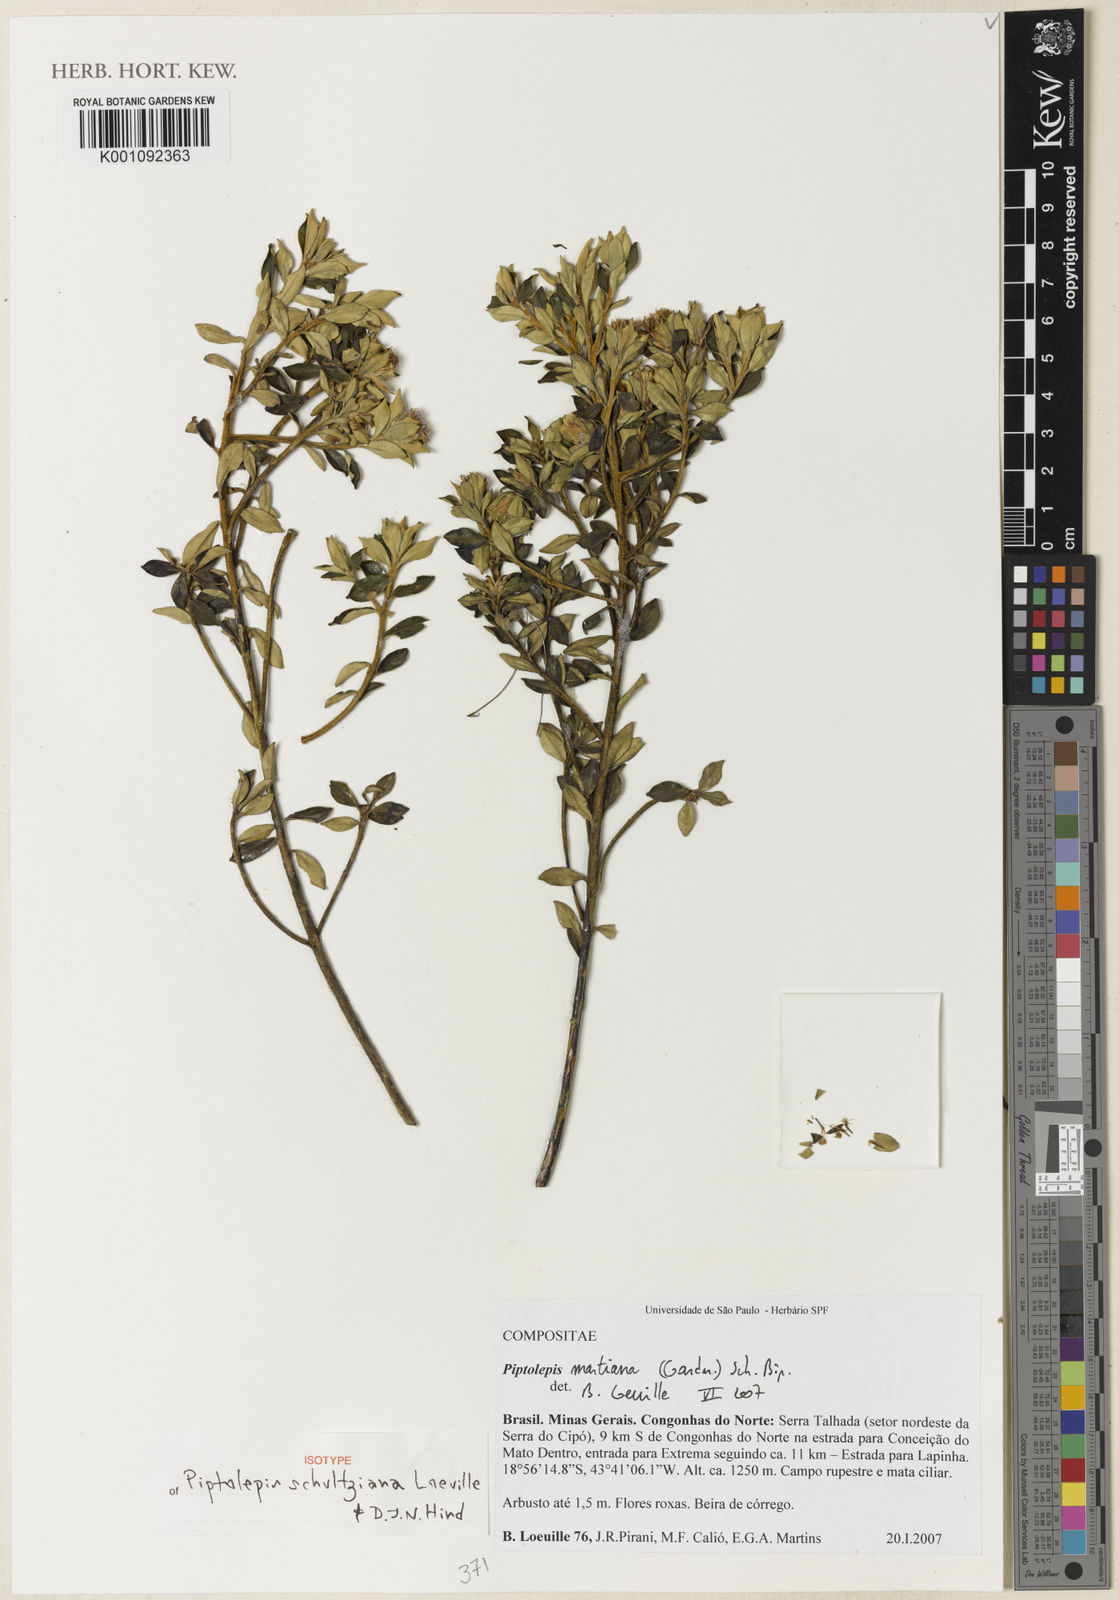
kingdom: Plantae
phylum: Tracheophyta
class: Magnoliopsida
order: Asterales
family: Asteraceae
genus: Piptolepis
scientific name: Piptolepis schultziana
